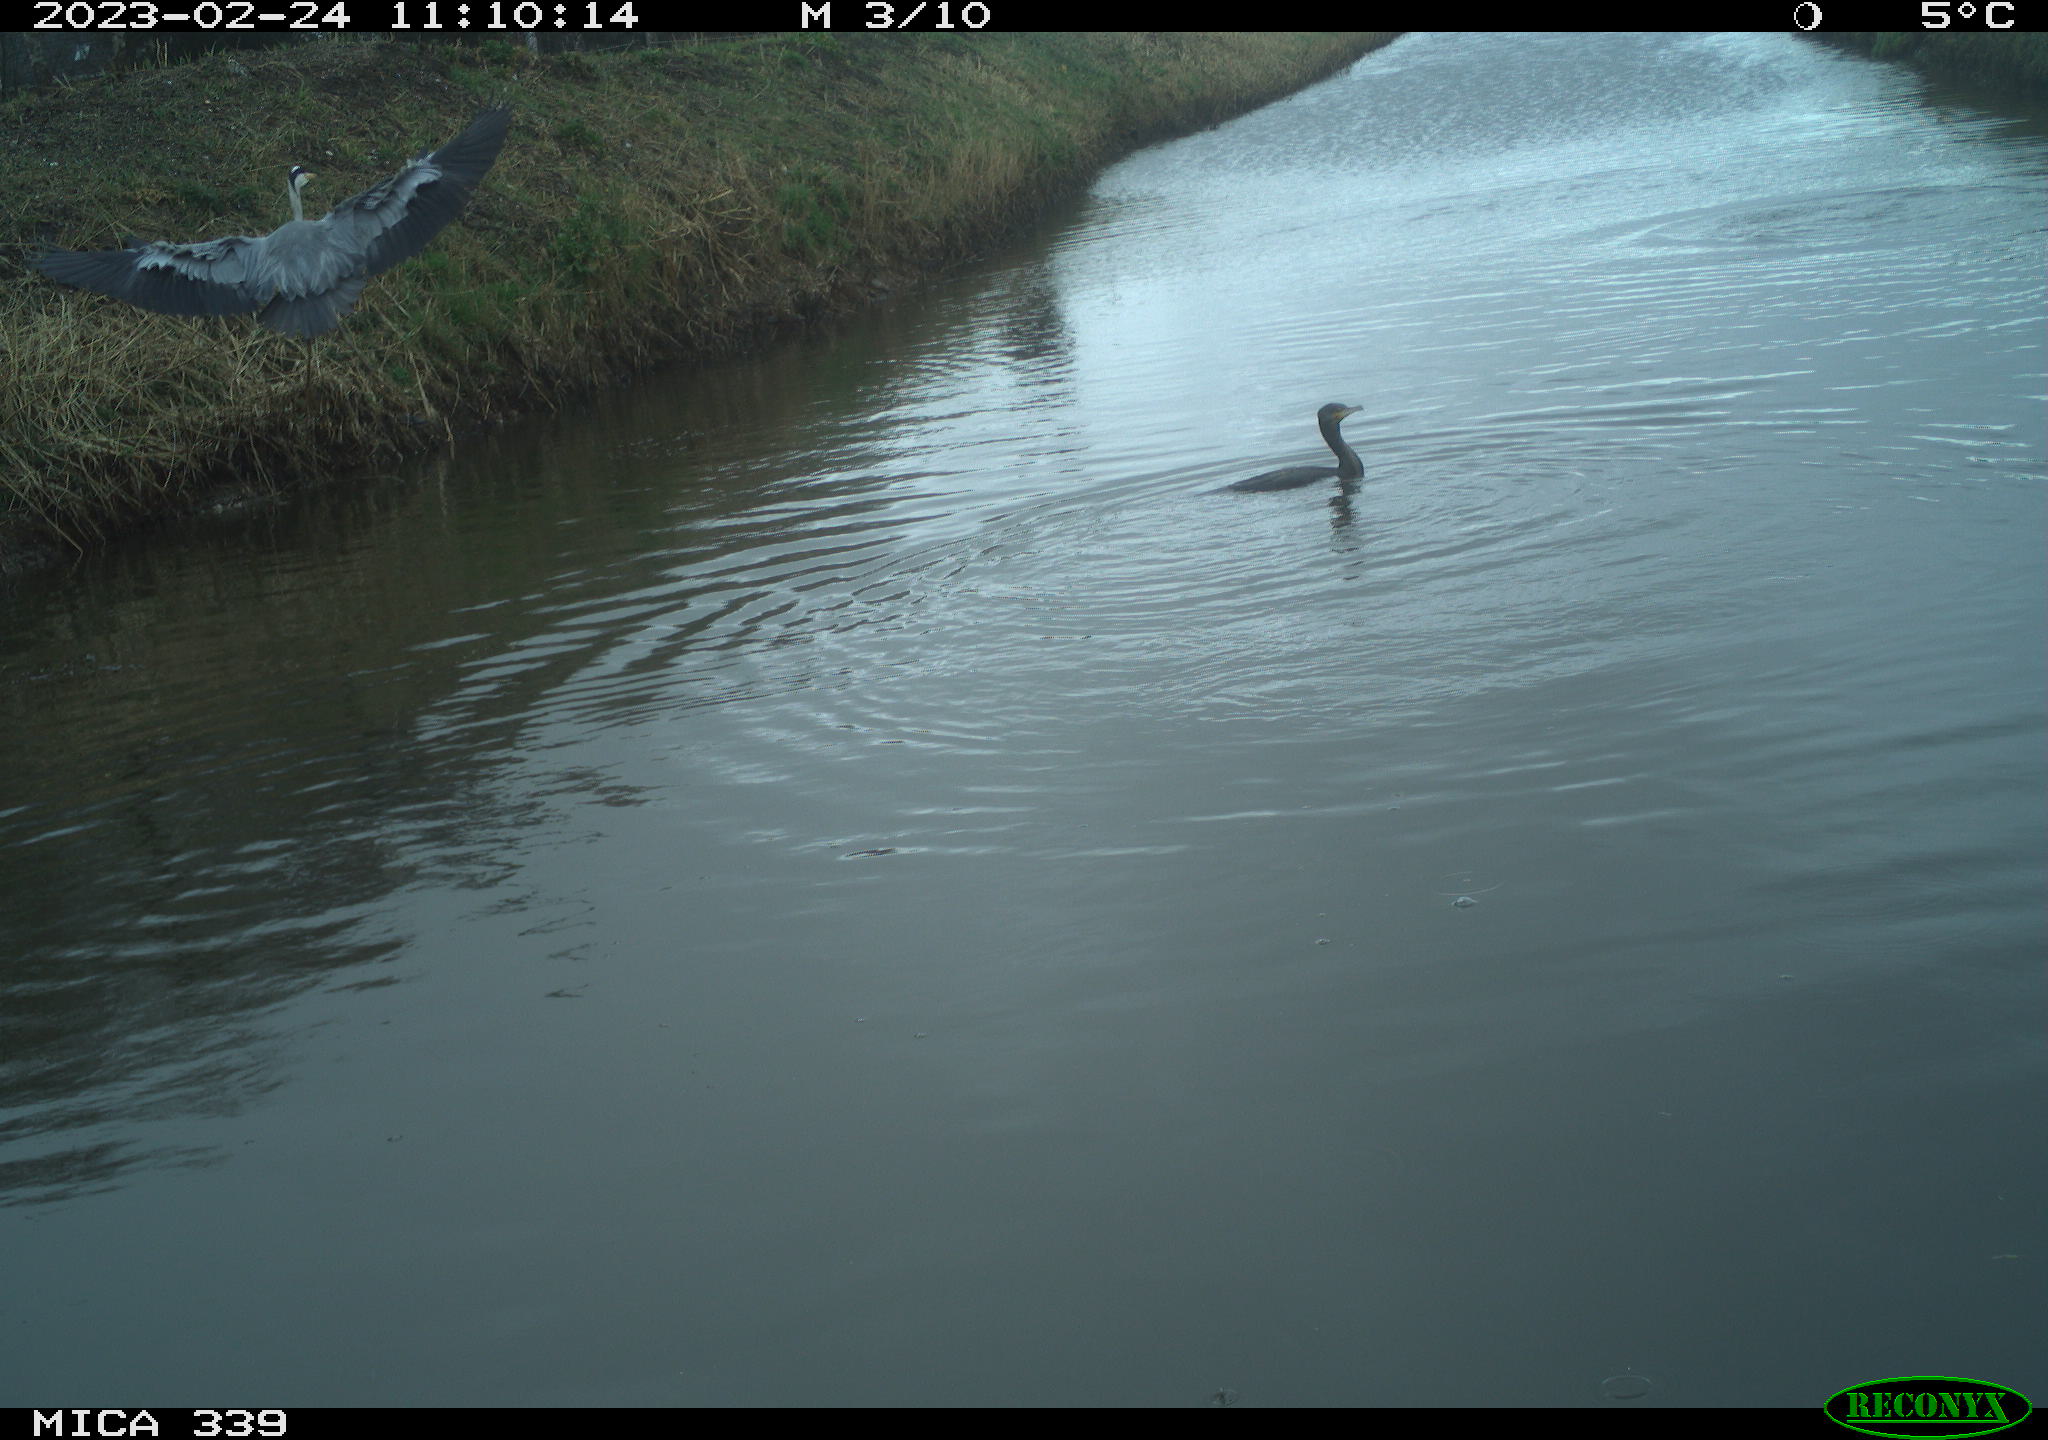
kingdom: Animalia
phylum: Chordata
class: Aves
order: Pelecaniformes
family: Ardeidae
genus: Ardea
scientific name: Ardea cinerea
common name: Grey heron
